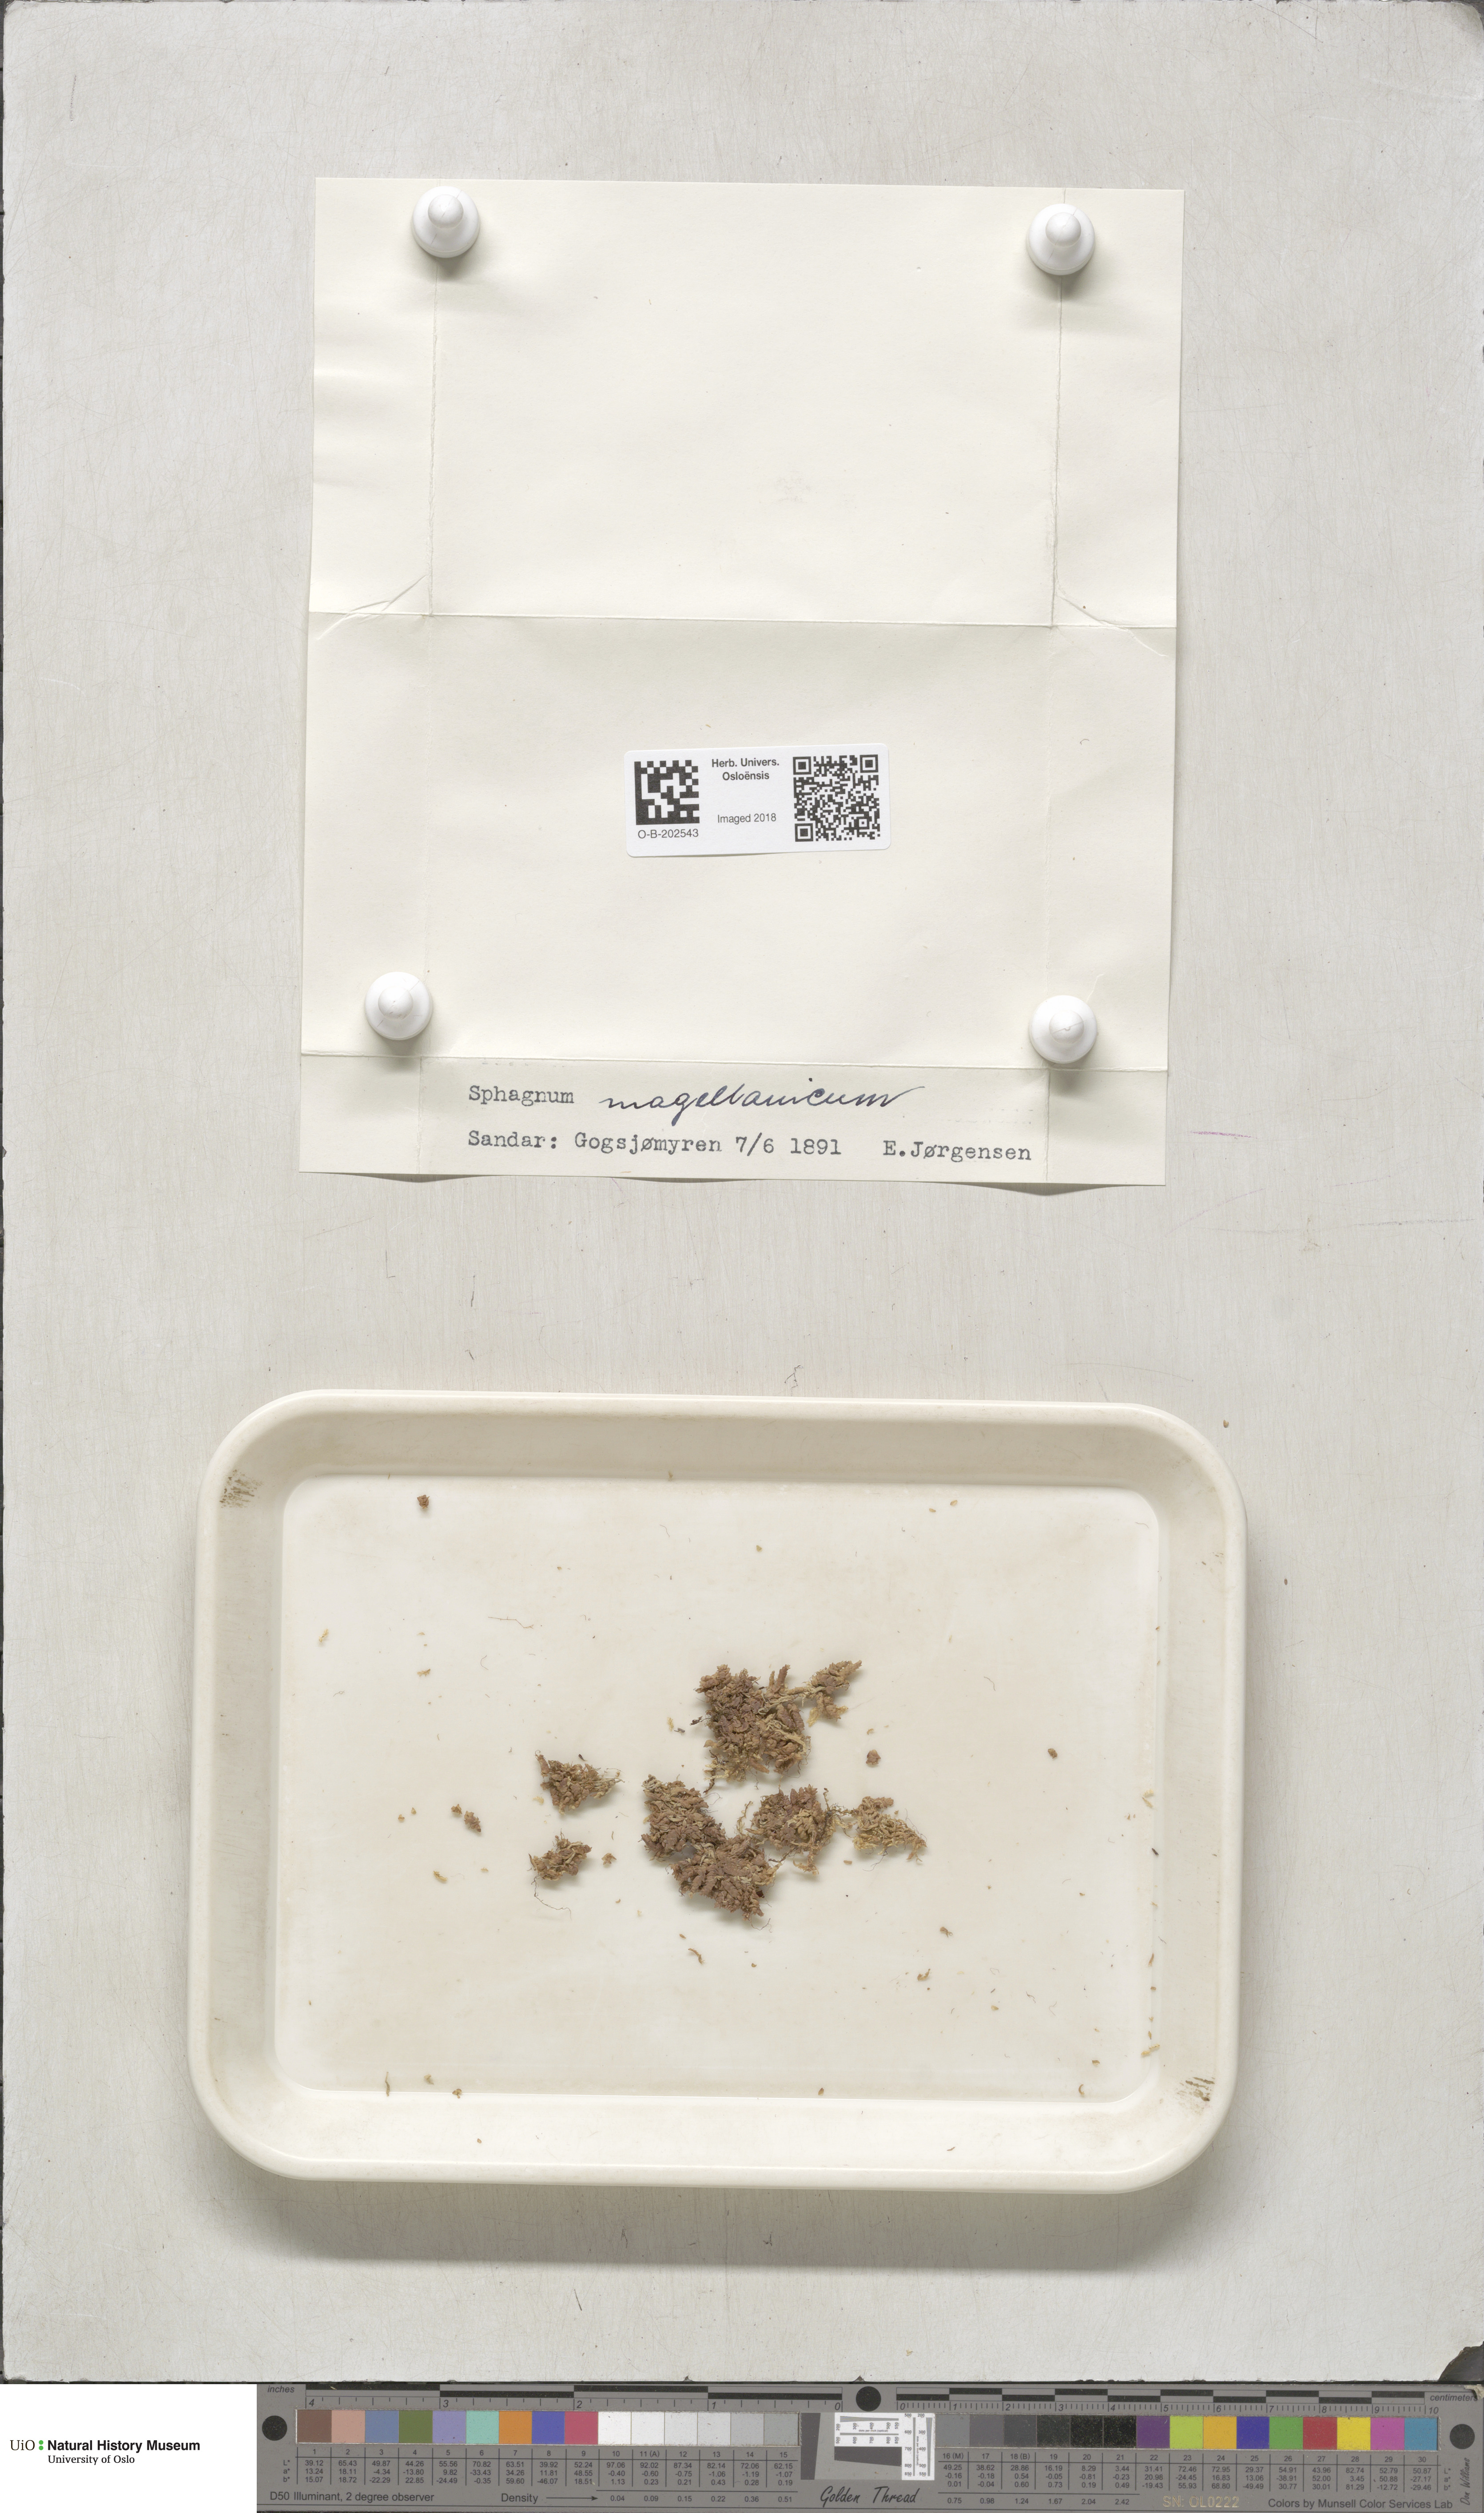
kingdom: Plantae
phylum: Bryophyta
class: Sphagnopsida
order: Sphagnales
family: Sphagnaceae
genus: Sphagnum
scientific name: Sphagnum magellanicum
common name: Magellan's peat moss
